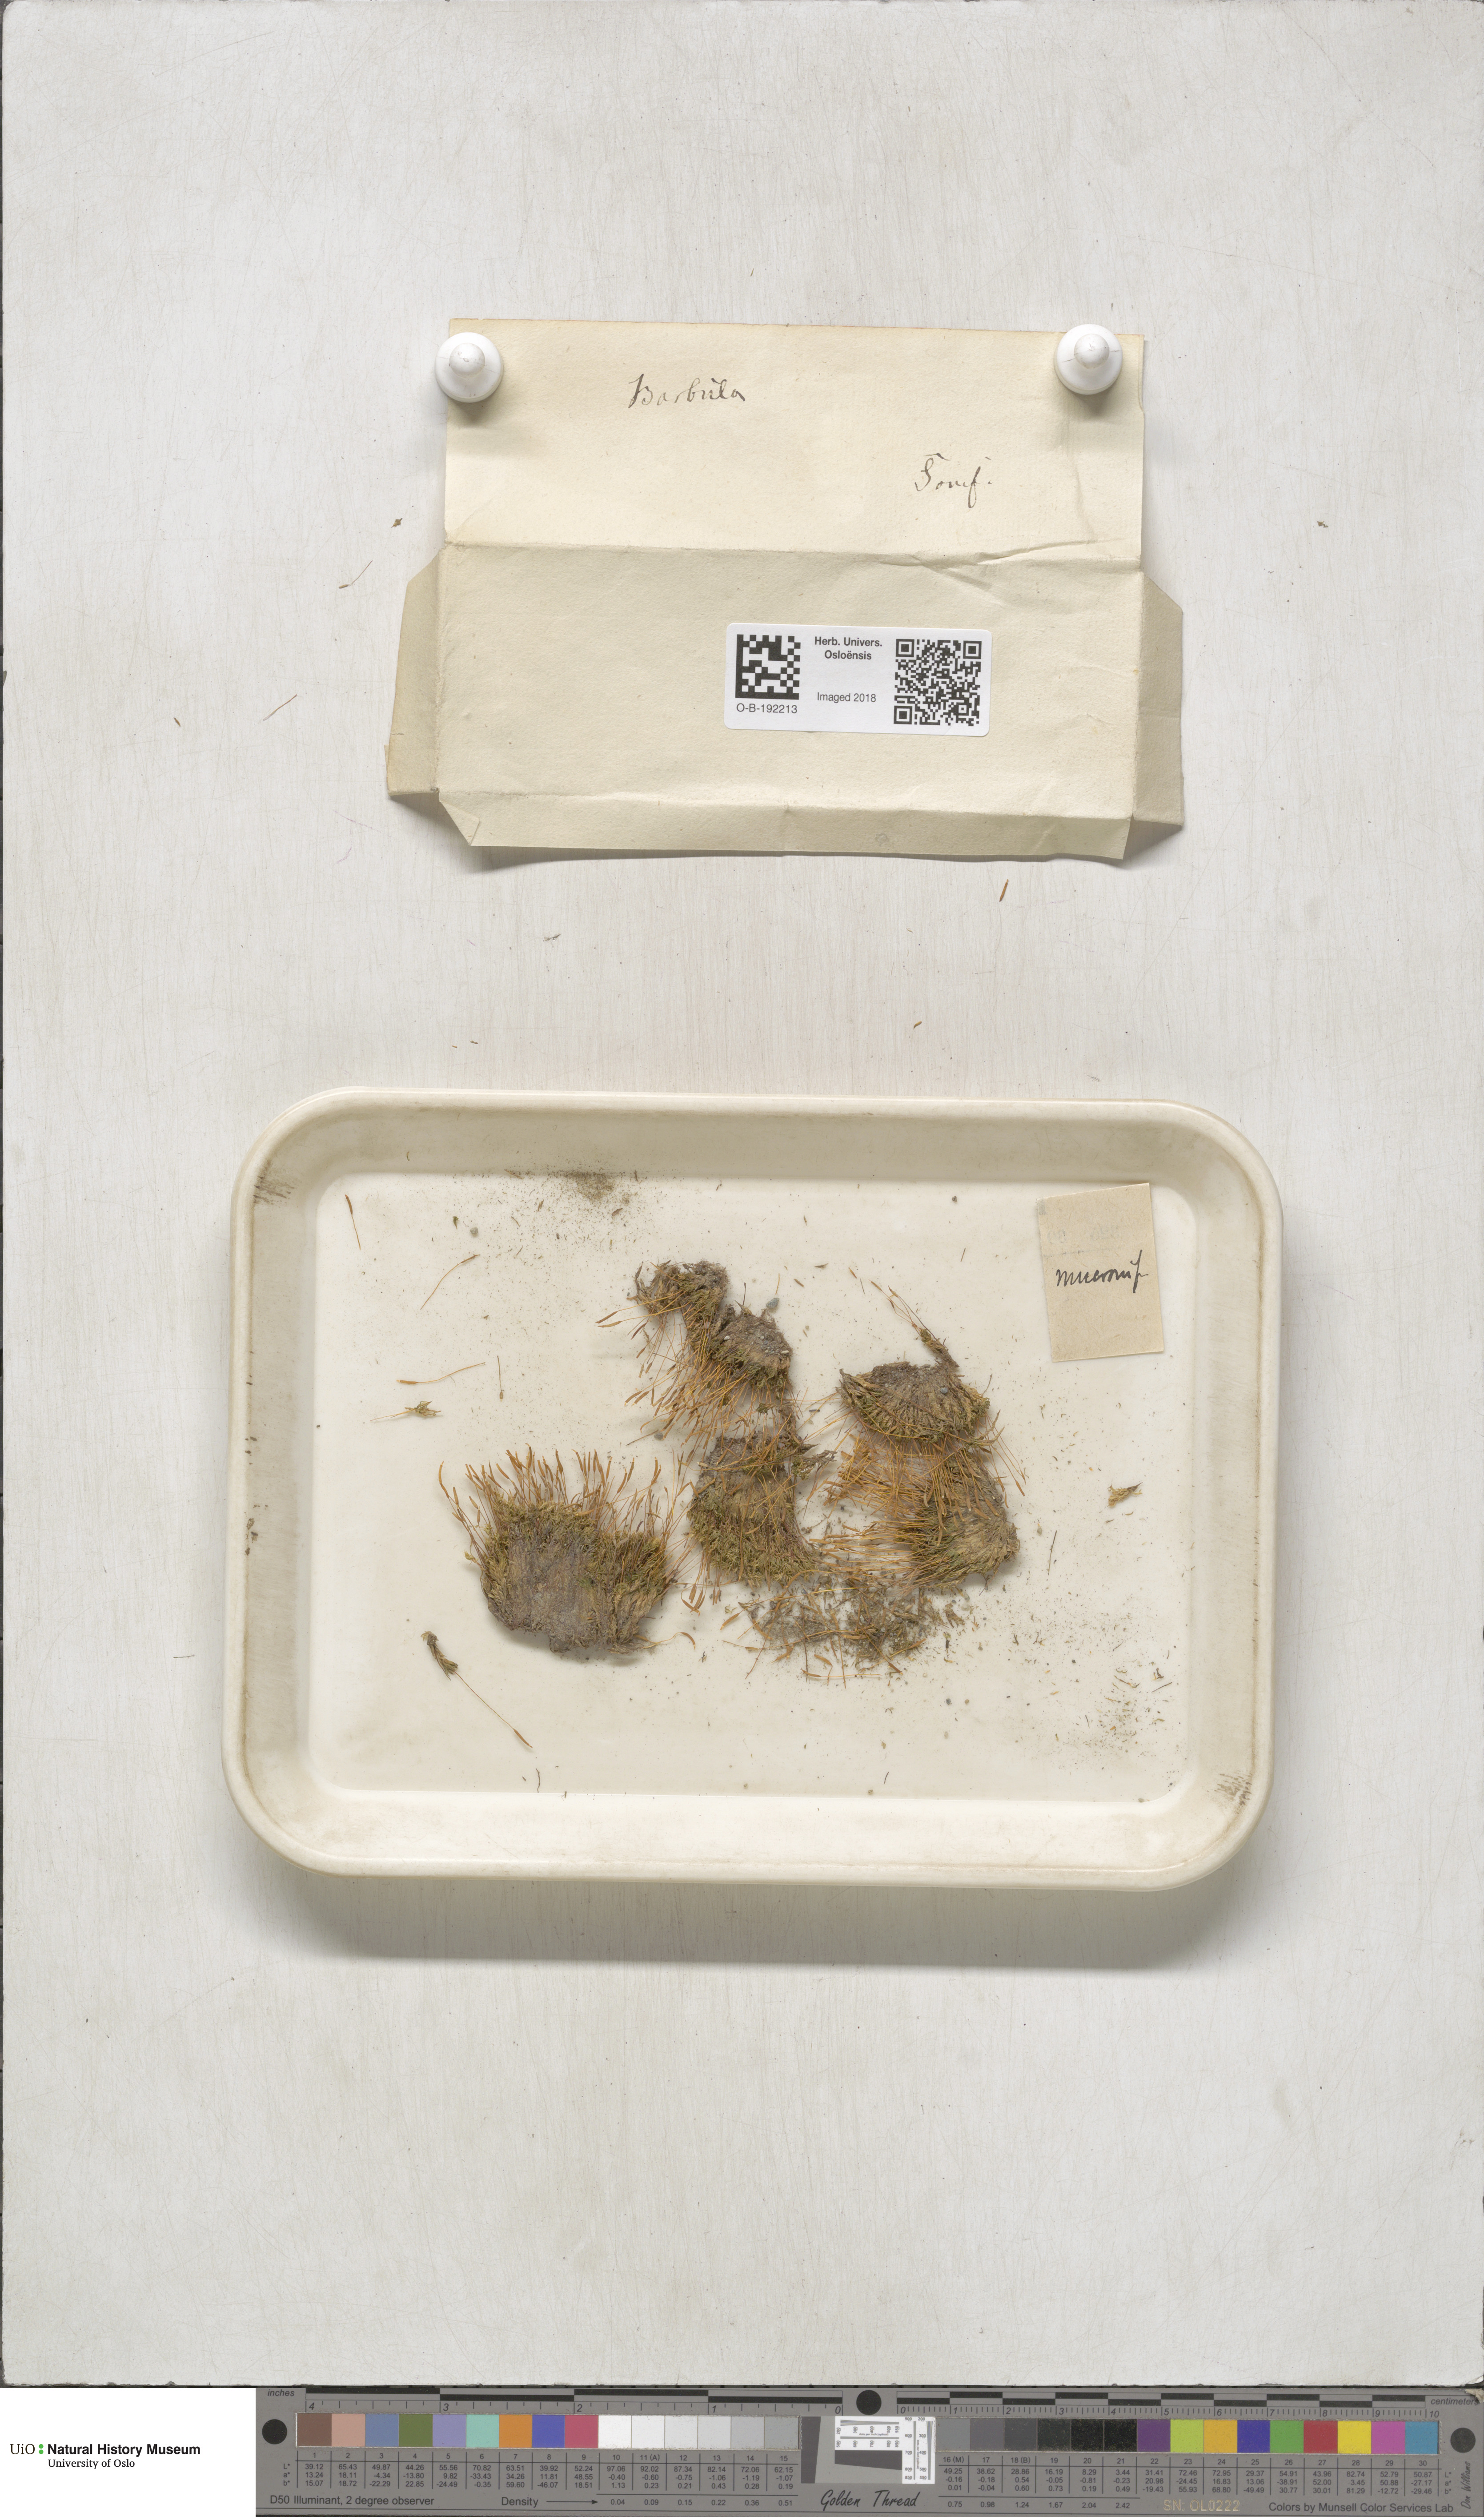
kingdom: Plantae
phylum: Bryophyta
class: Bryopsida
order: Pottiales
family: Pottiaceae
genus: Tortula
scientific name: Tortula mucronifolia
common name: Mucronate screw moss
